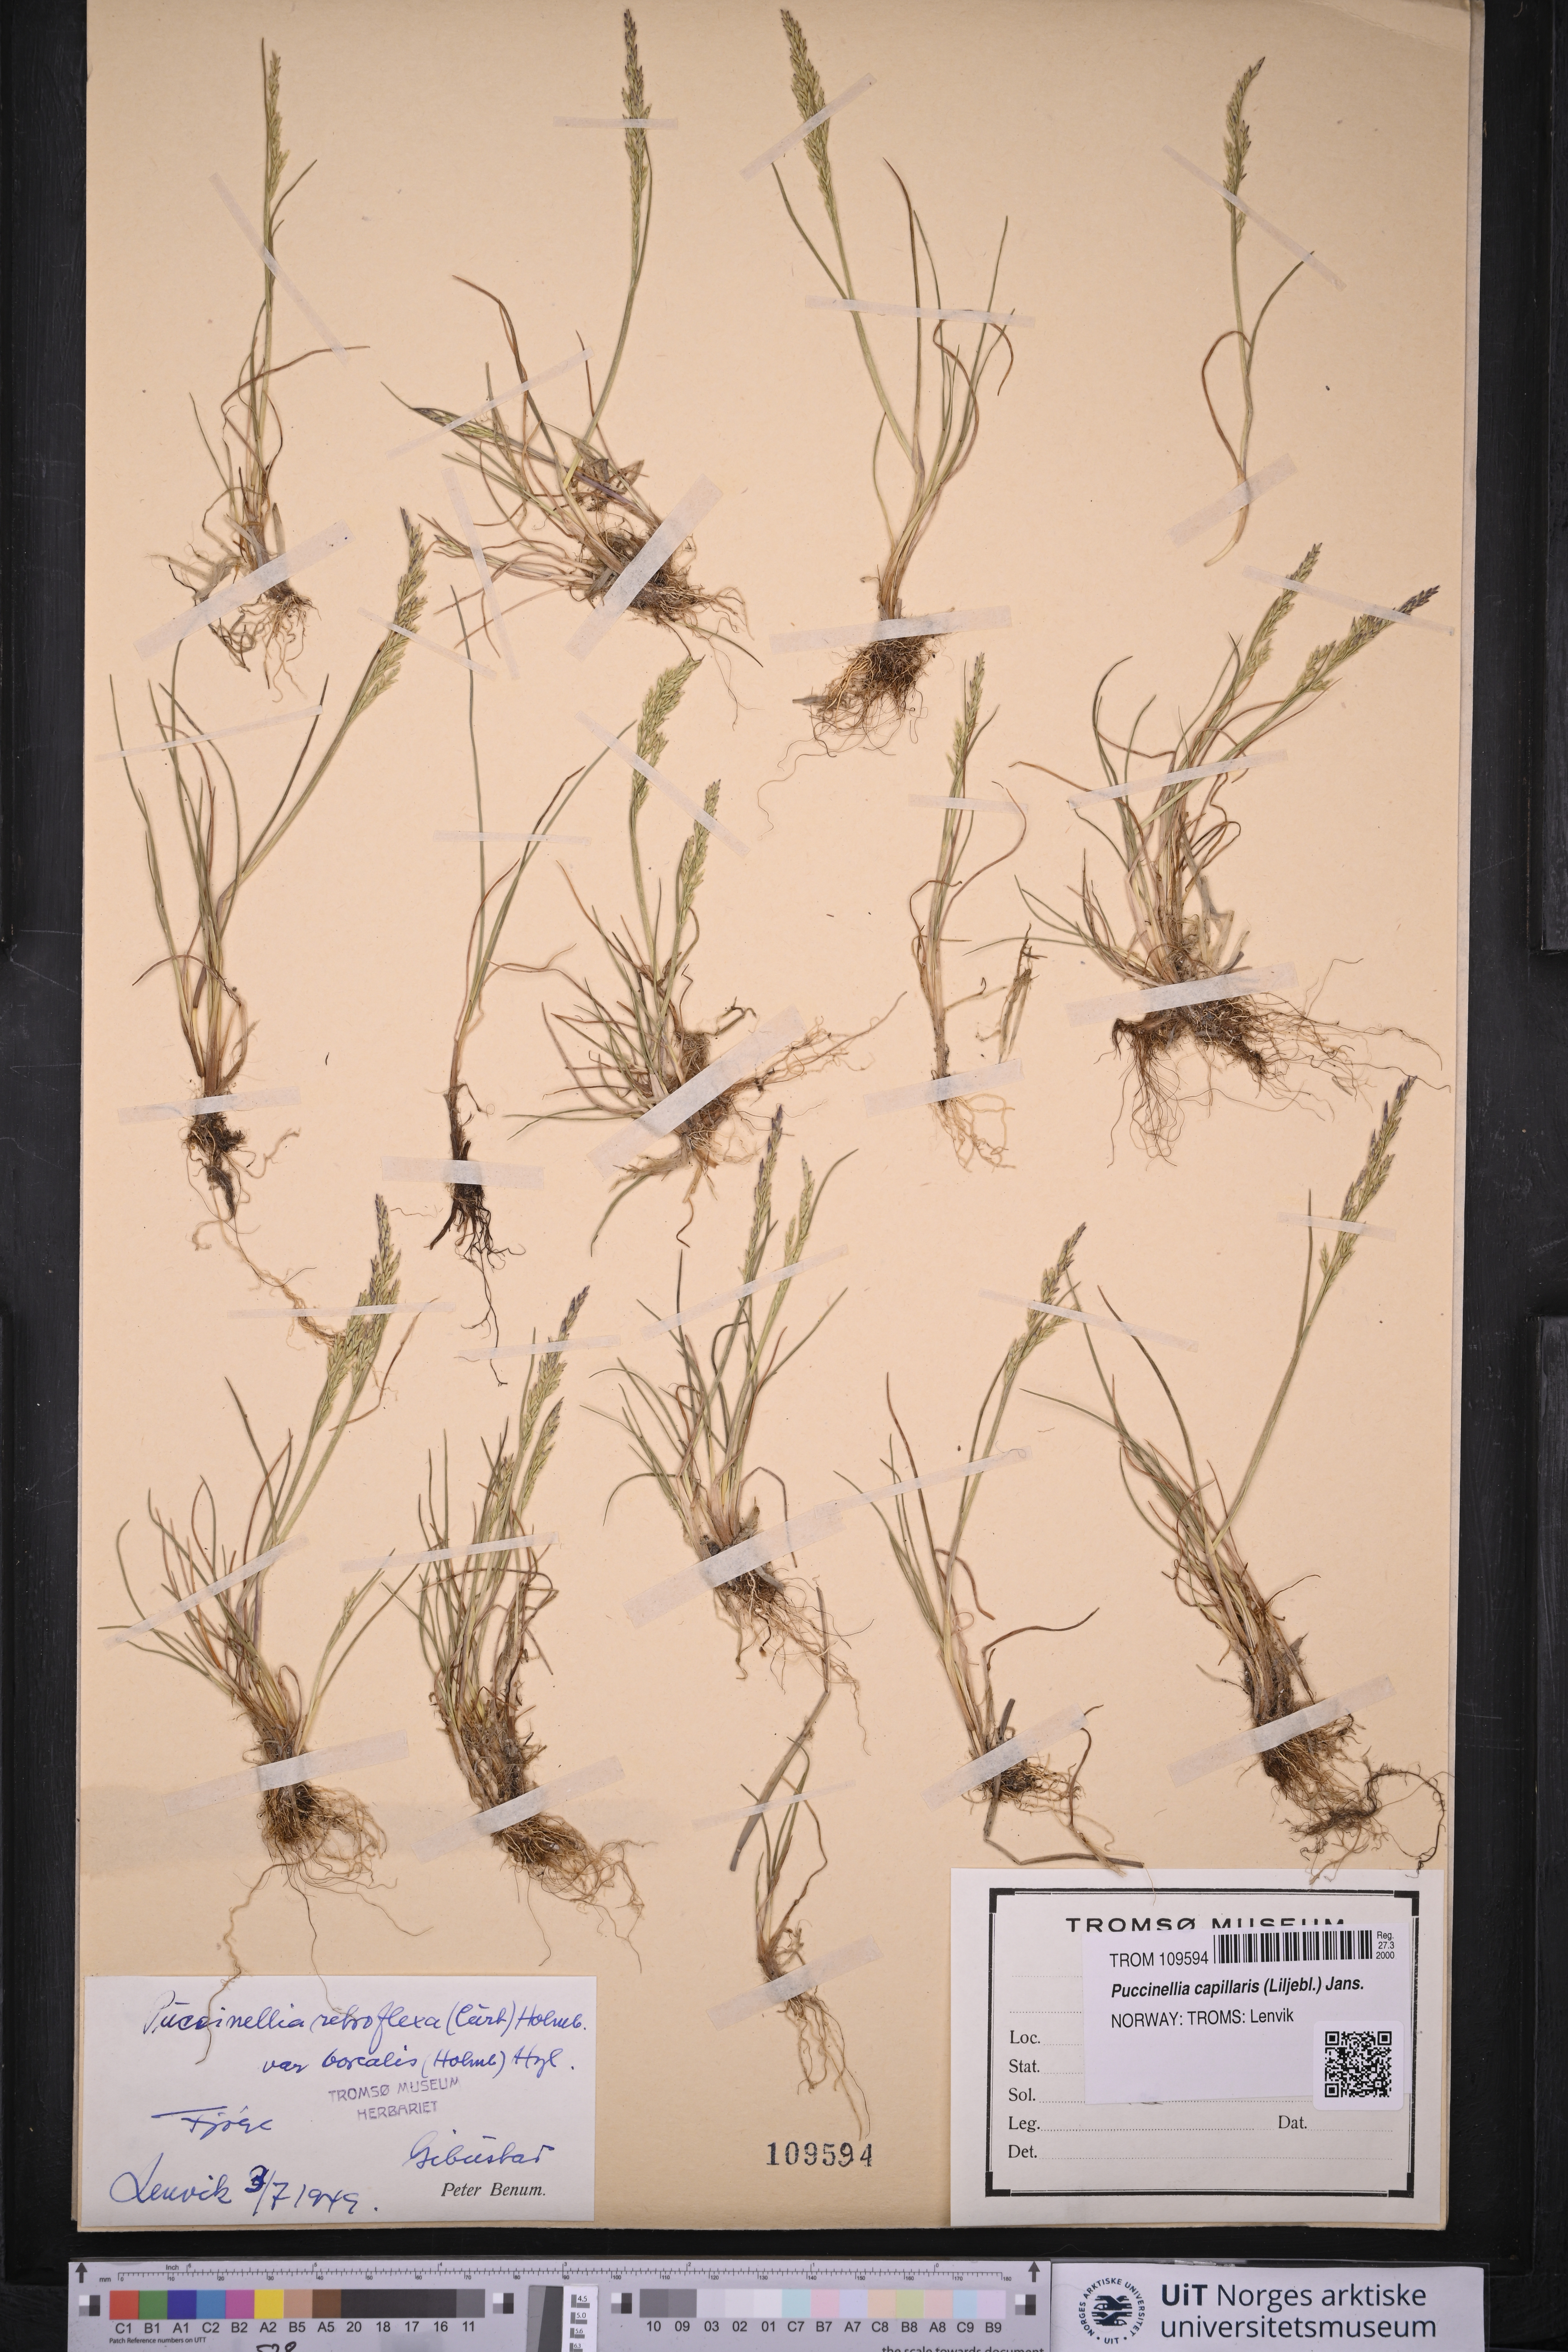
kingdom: Plantae
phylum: Tracheophyta
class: Liliopsida
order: Poales
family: Poaceae
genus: Puccinellia
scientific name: Puccinellia distans
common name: Weeping alkaligrass
